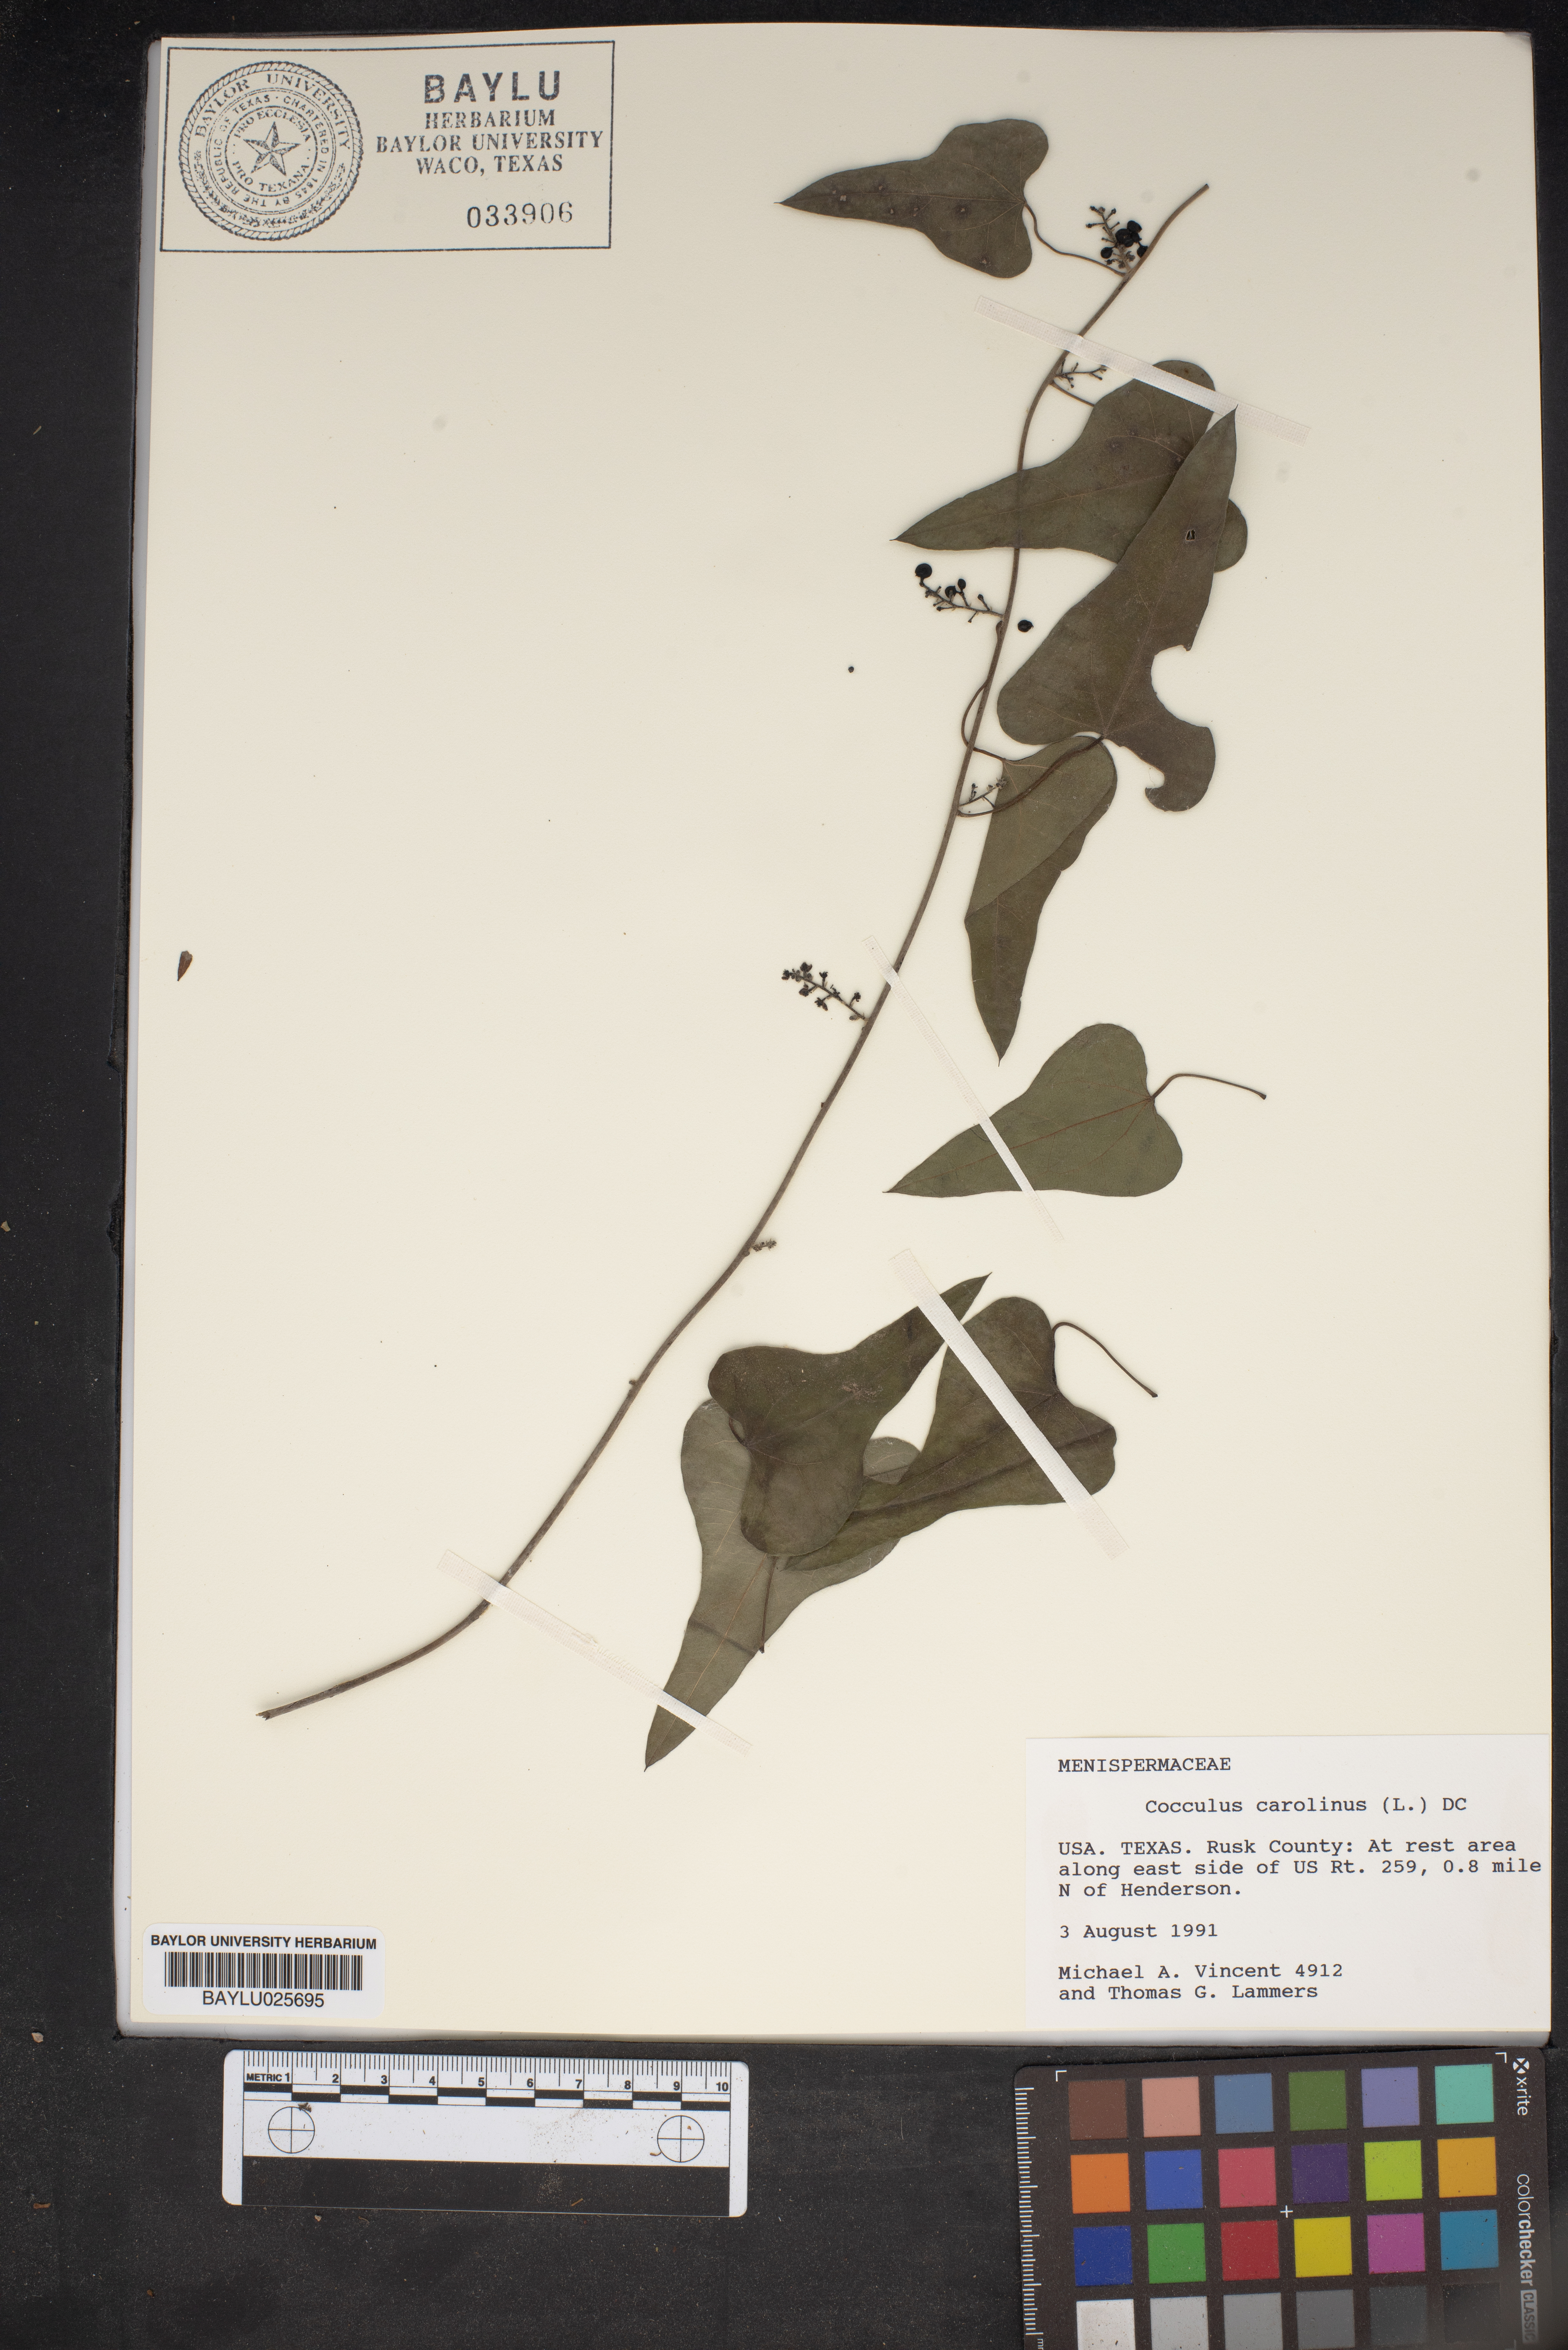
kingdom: Plantae
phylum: Tracheophyta
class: Magnoliopsida
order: Ranunculales
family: Menispermaceae
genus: Cocculus
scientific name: Cocculus carolinus
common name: Carolina moonseed
